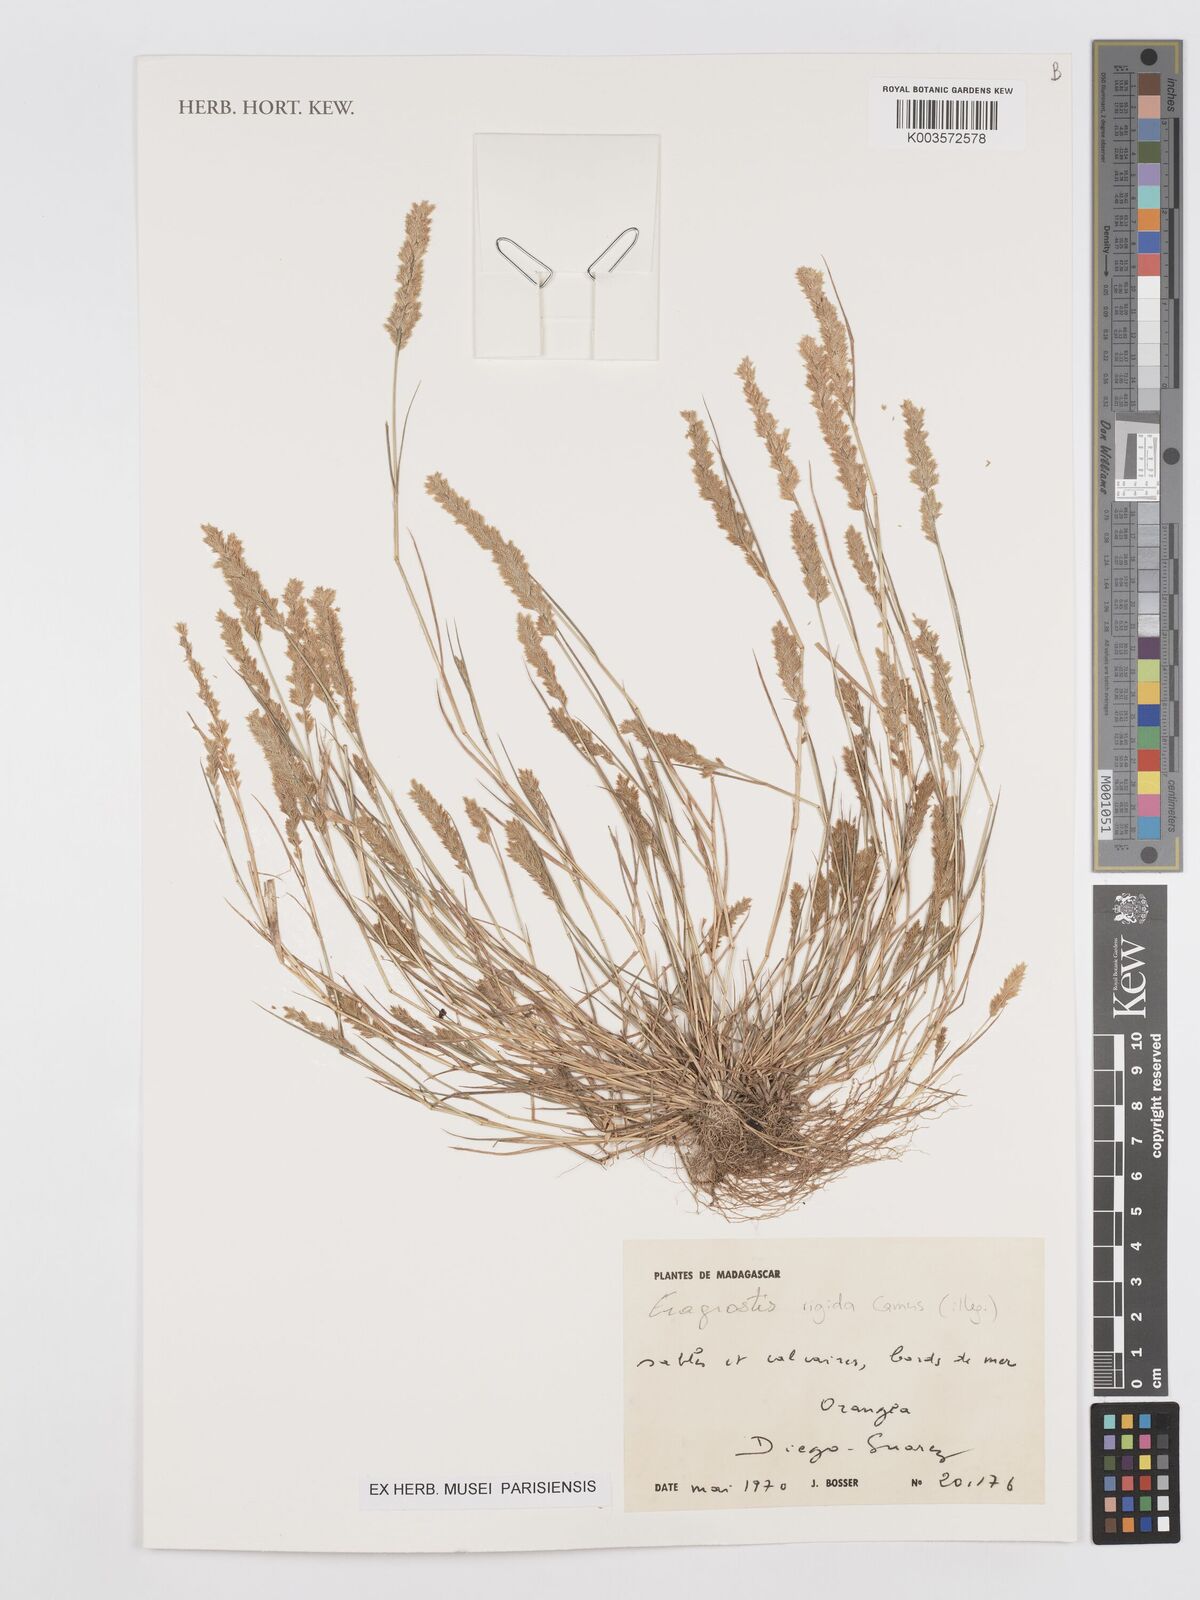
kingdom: Plantae
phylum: Tracheophyta
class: Liliopsida
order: Poales
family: Poaceae
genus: Eragrostis
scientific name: Eragrostis rigida
